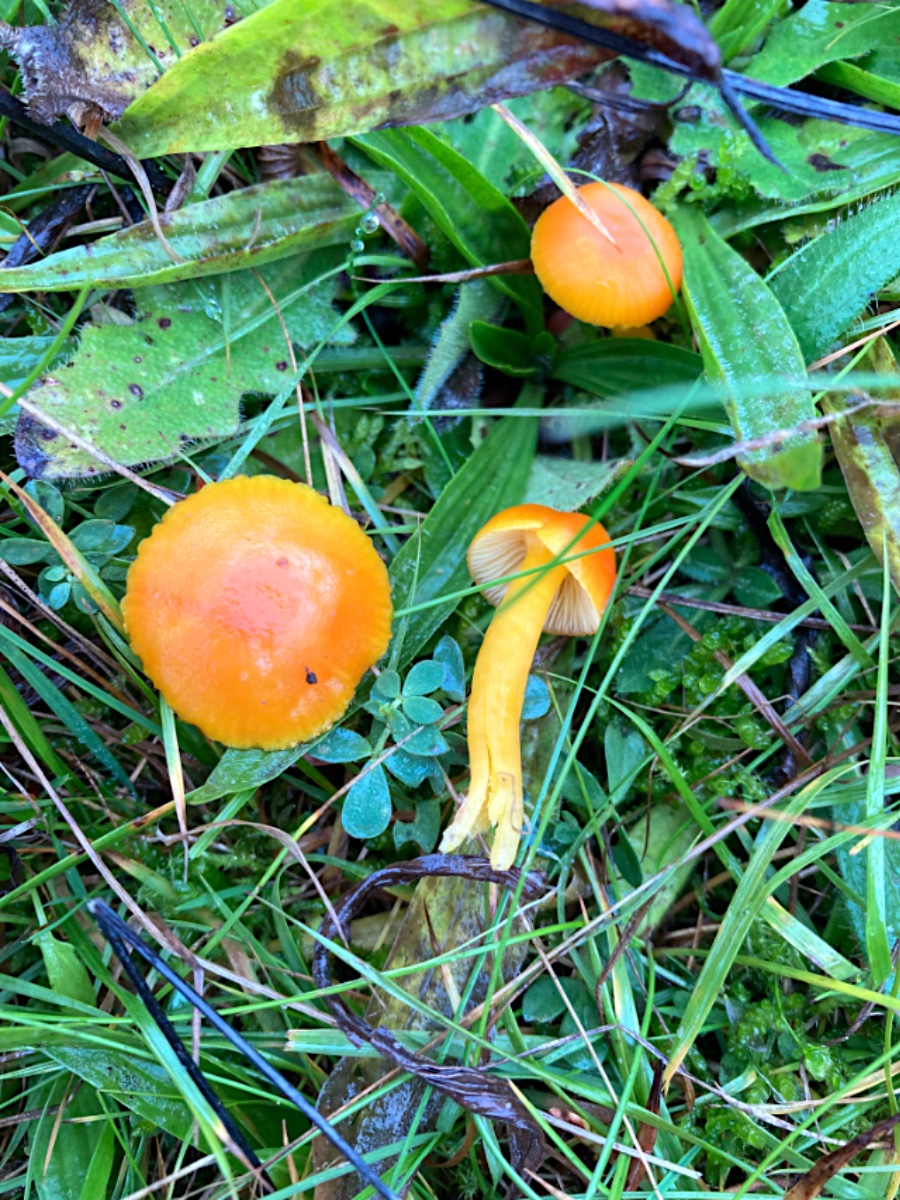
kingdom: Fungi
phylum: Basidiomycota
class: Agaricomycetes
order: Agaricales
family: Hygrophoraceae
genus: Hygrocybe
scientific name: Hygrocybe ceracea
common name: voksgul vokshat
